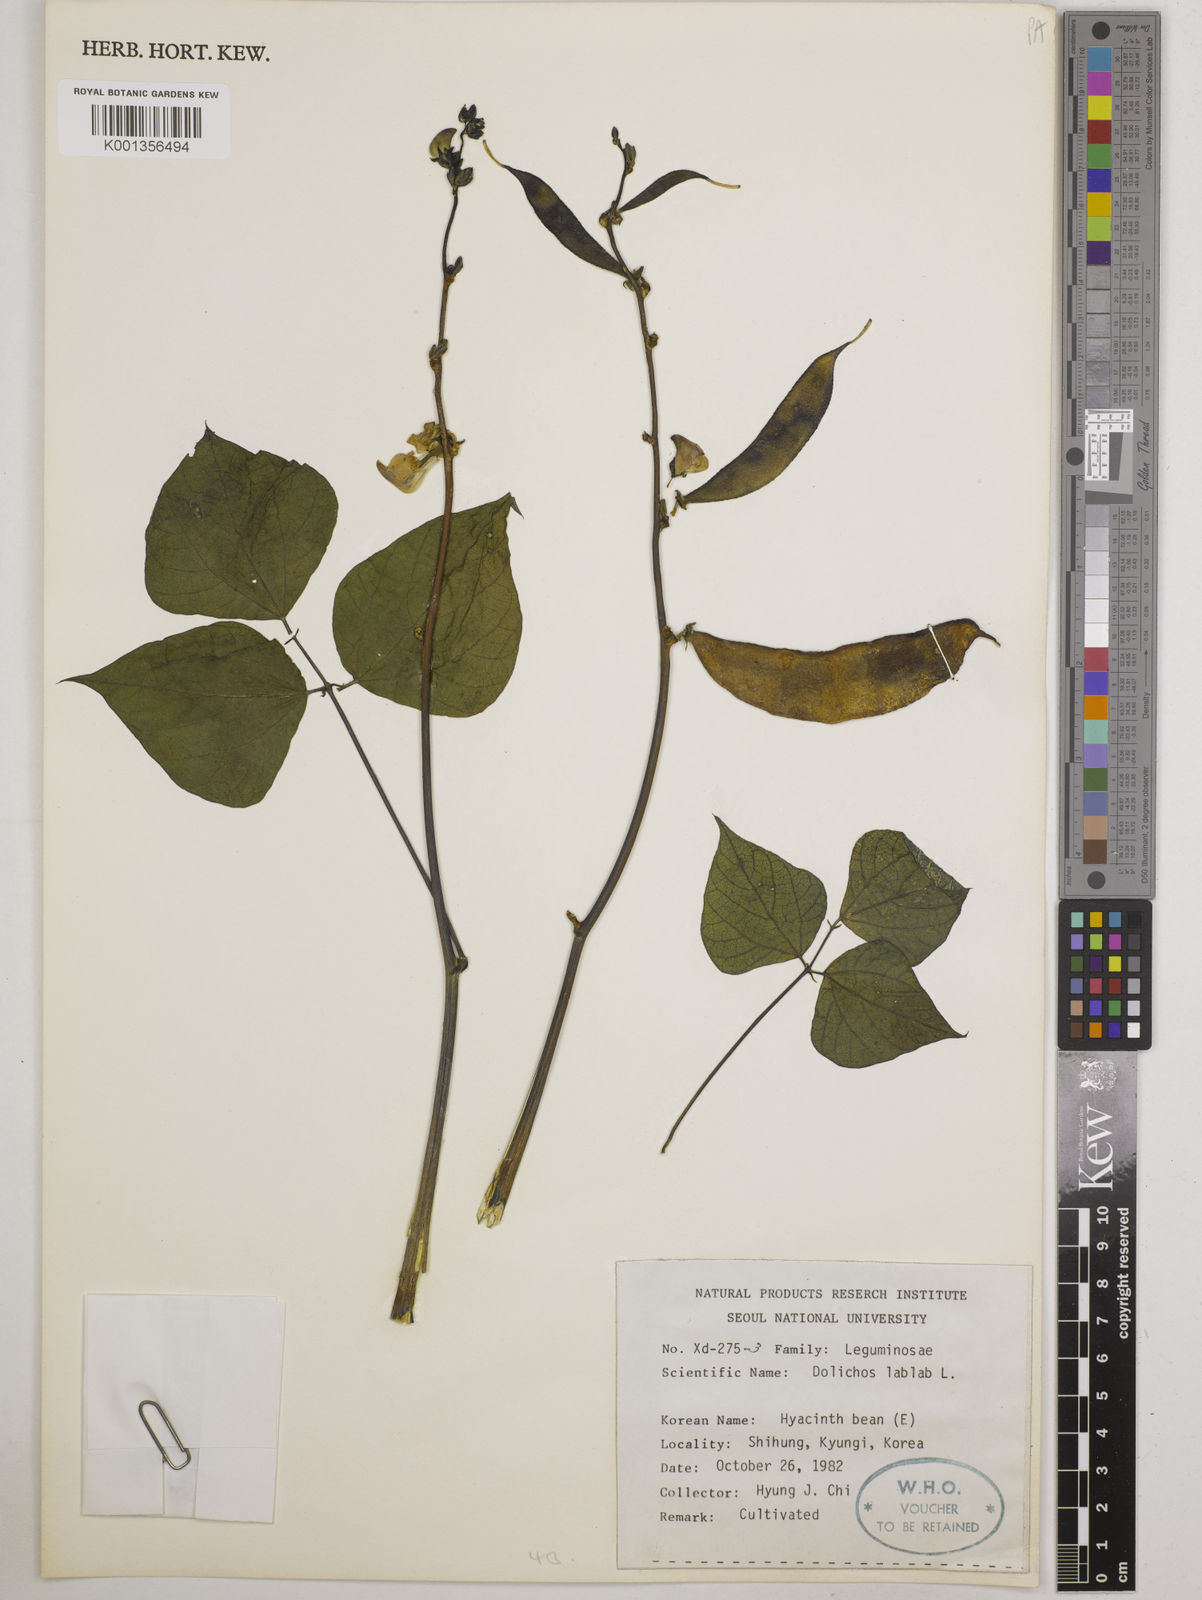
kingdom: Plantae
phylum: Tracheophyta
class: Magnoliopsida
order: Fabales
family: Fabaceae
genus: Lablab
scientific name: Lablab purpureus
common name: Lablab-bean
